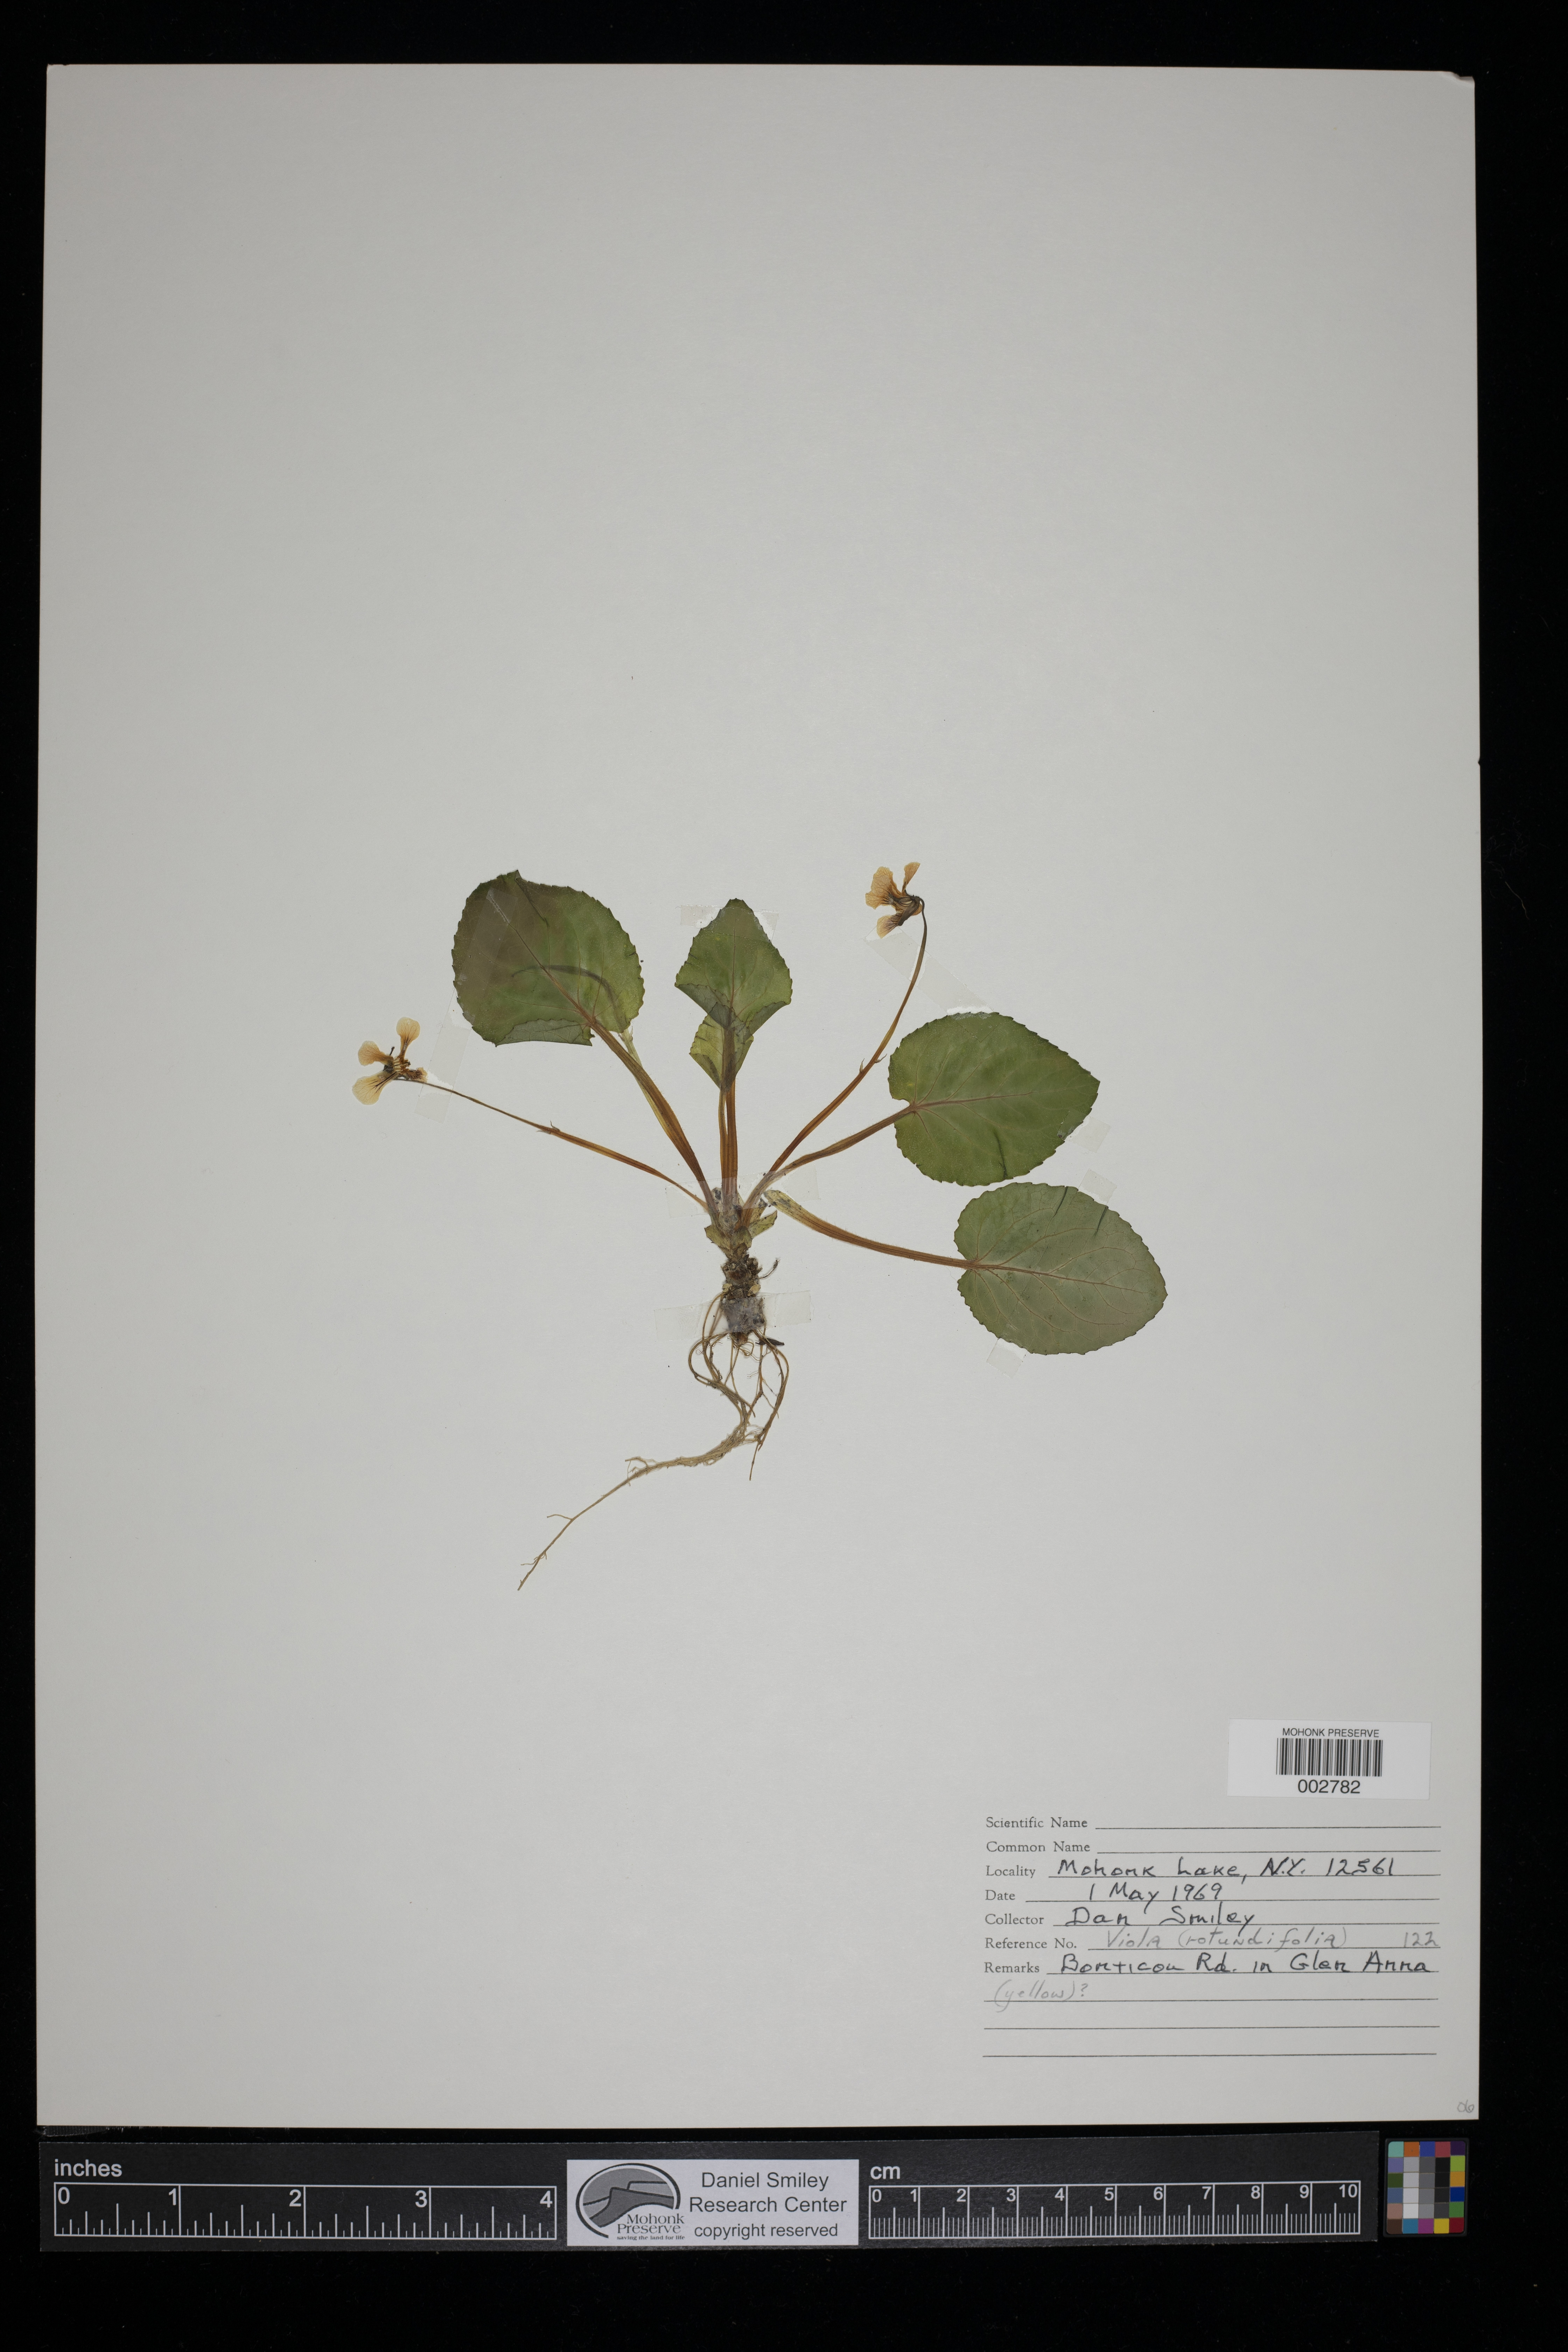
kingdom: Plantae
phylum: Tracheophyta
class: Magnoliopsida
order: Malpighiales
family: Violaceae
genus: Viola
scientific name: Viola rotundifolia
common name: Early yellow violet
